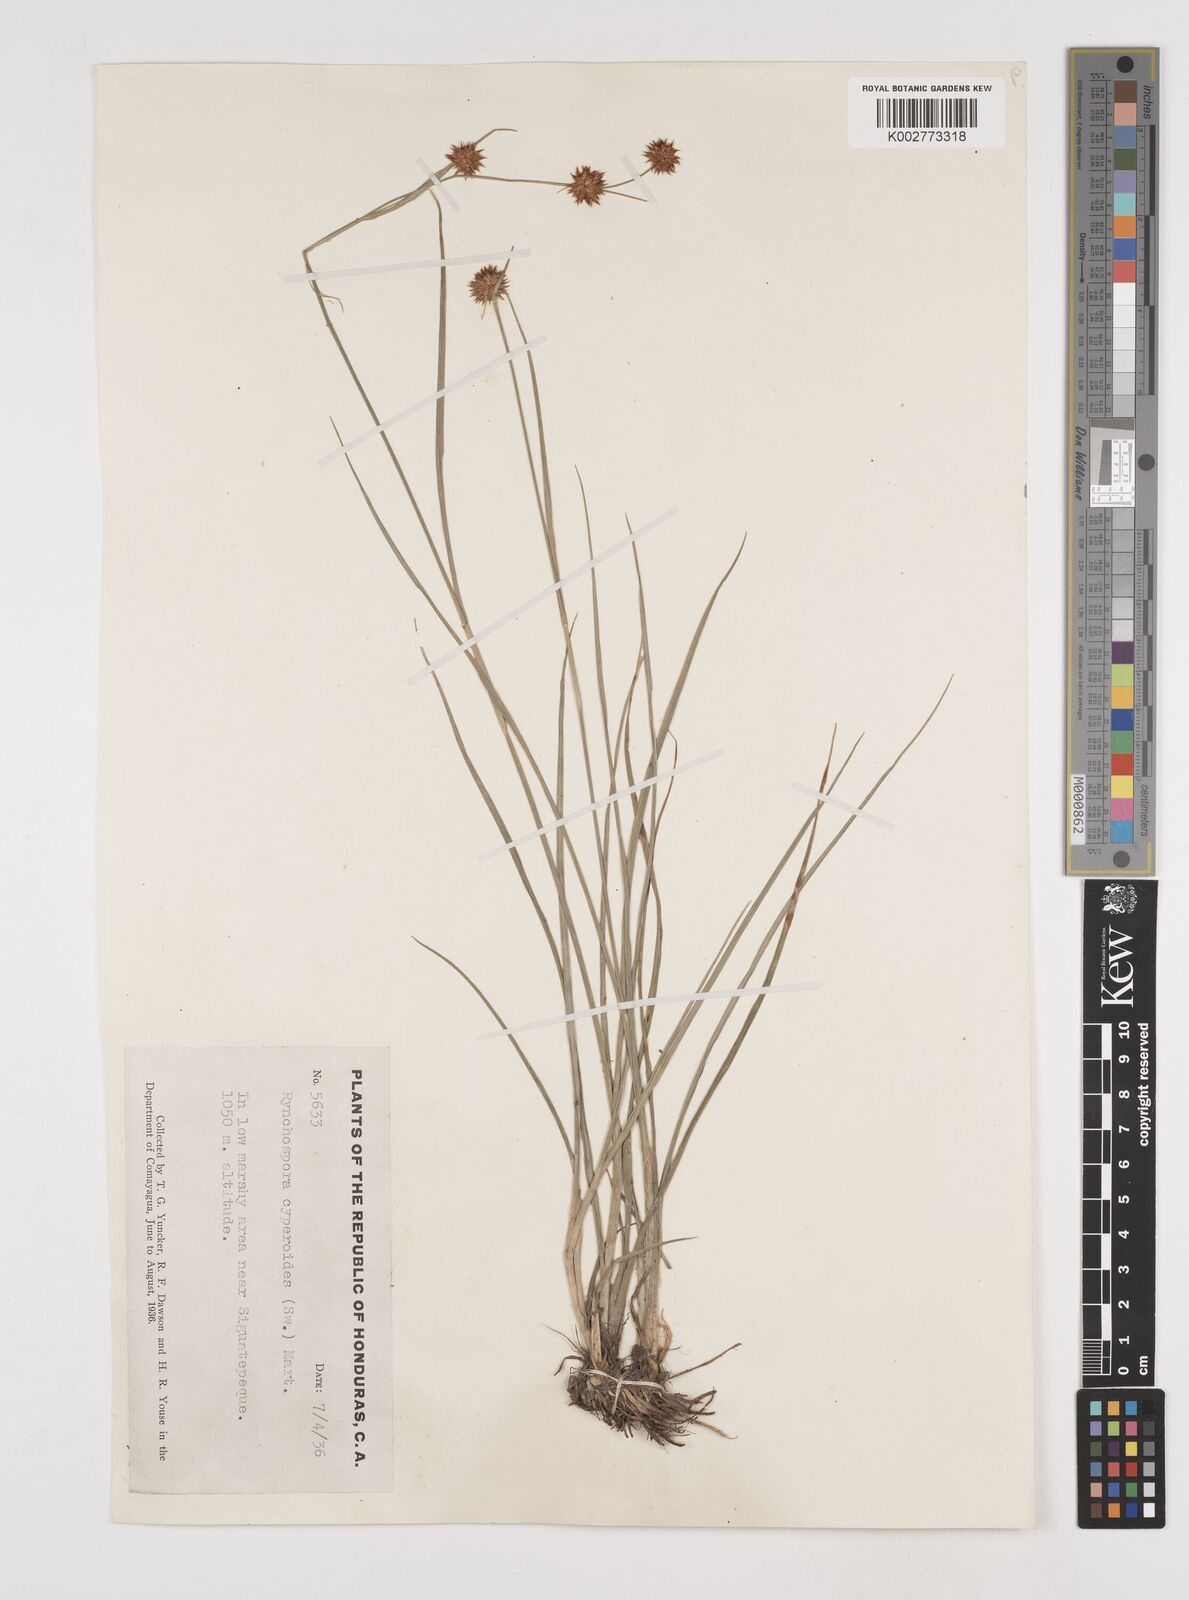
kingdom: Plantae
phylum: Tracheophyta
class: Liliopsida
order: Poales
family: Cyperaceae
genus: Rhynchospora
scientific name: Rhynchospora holoschoenoides
